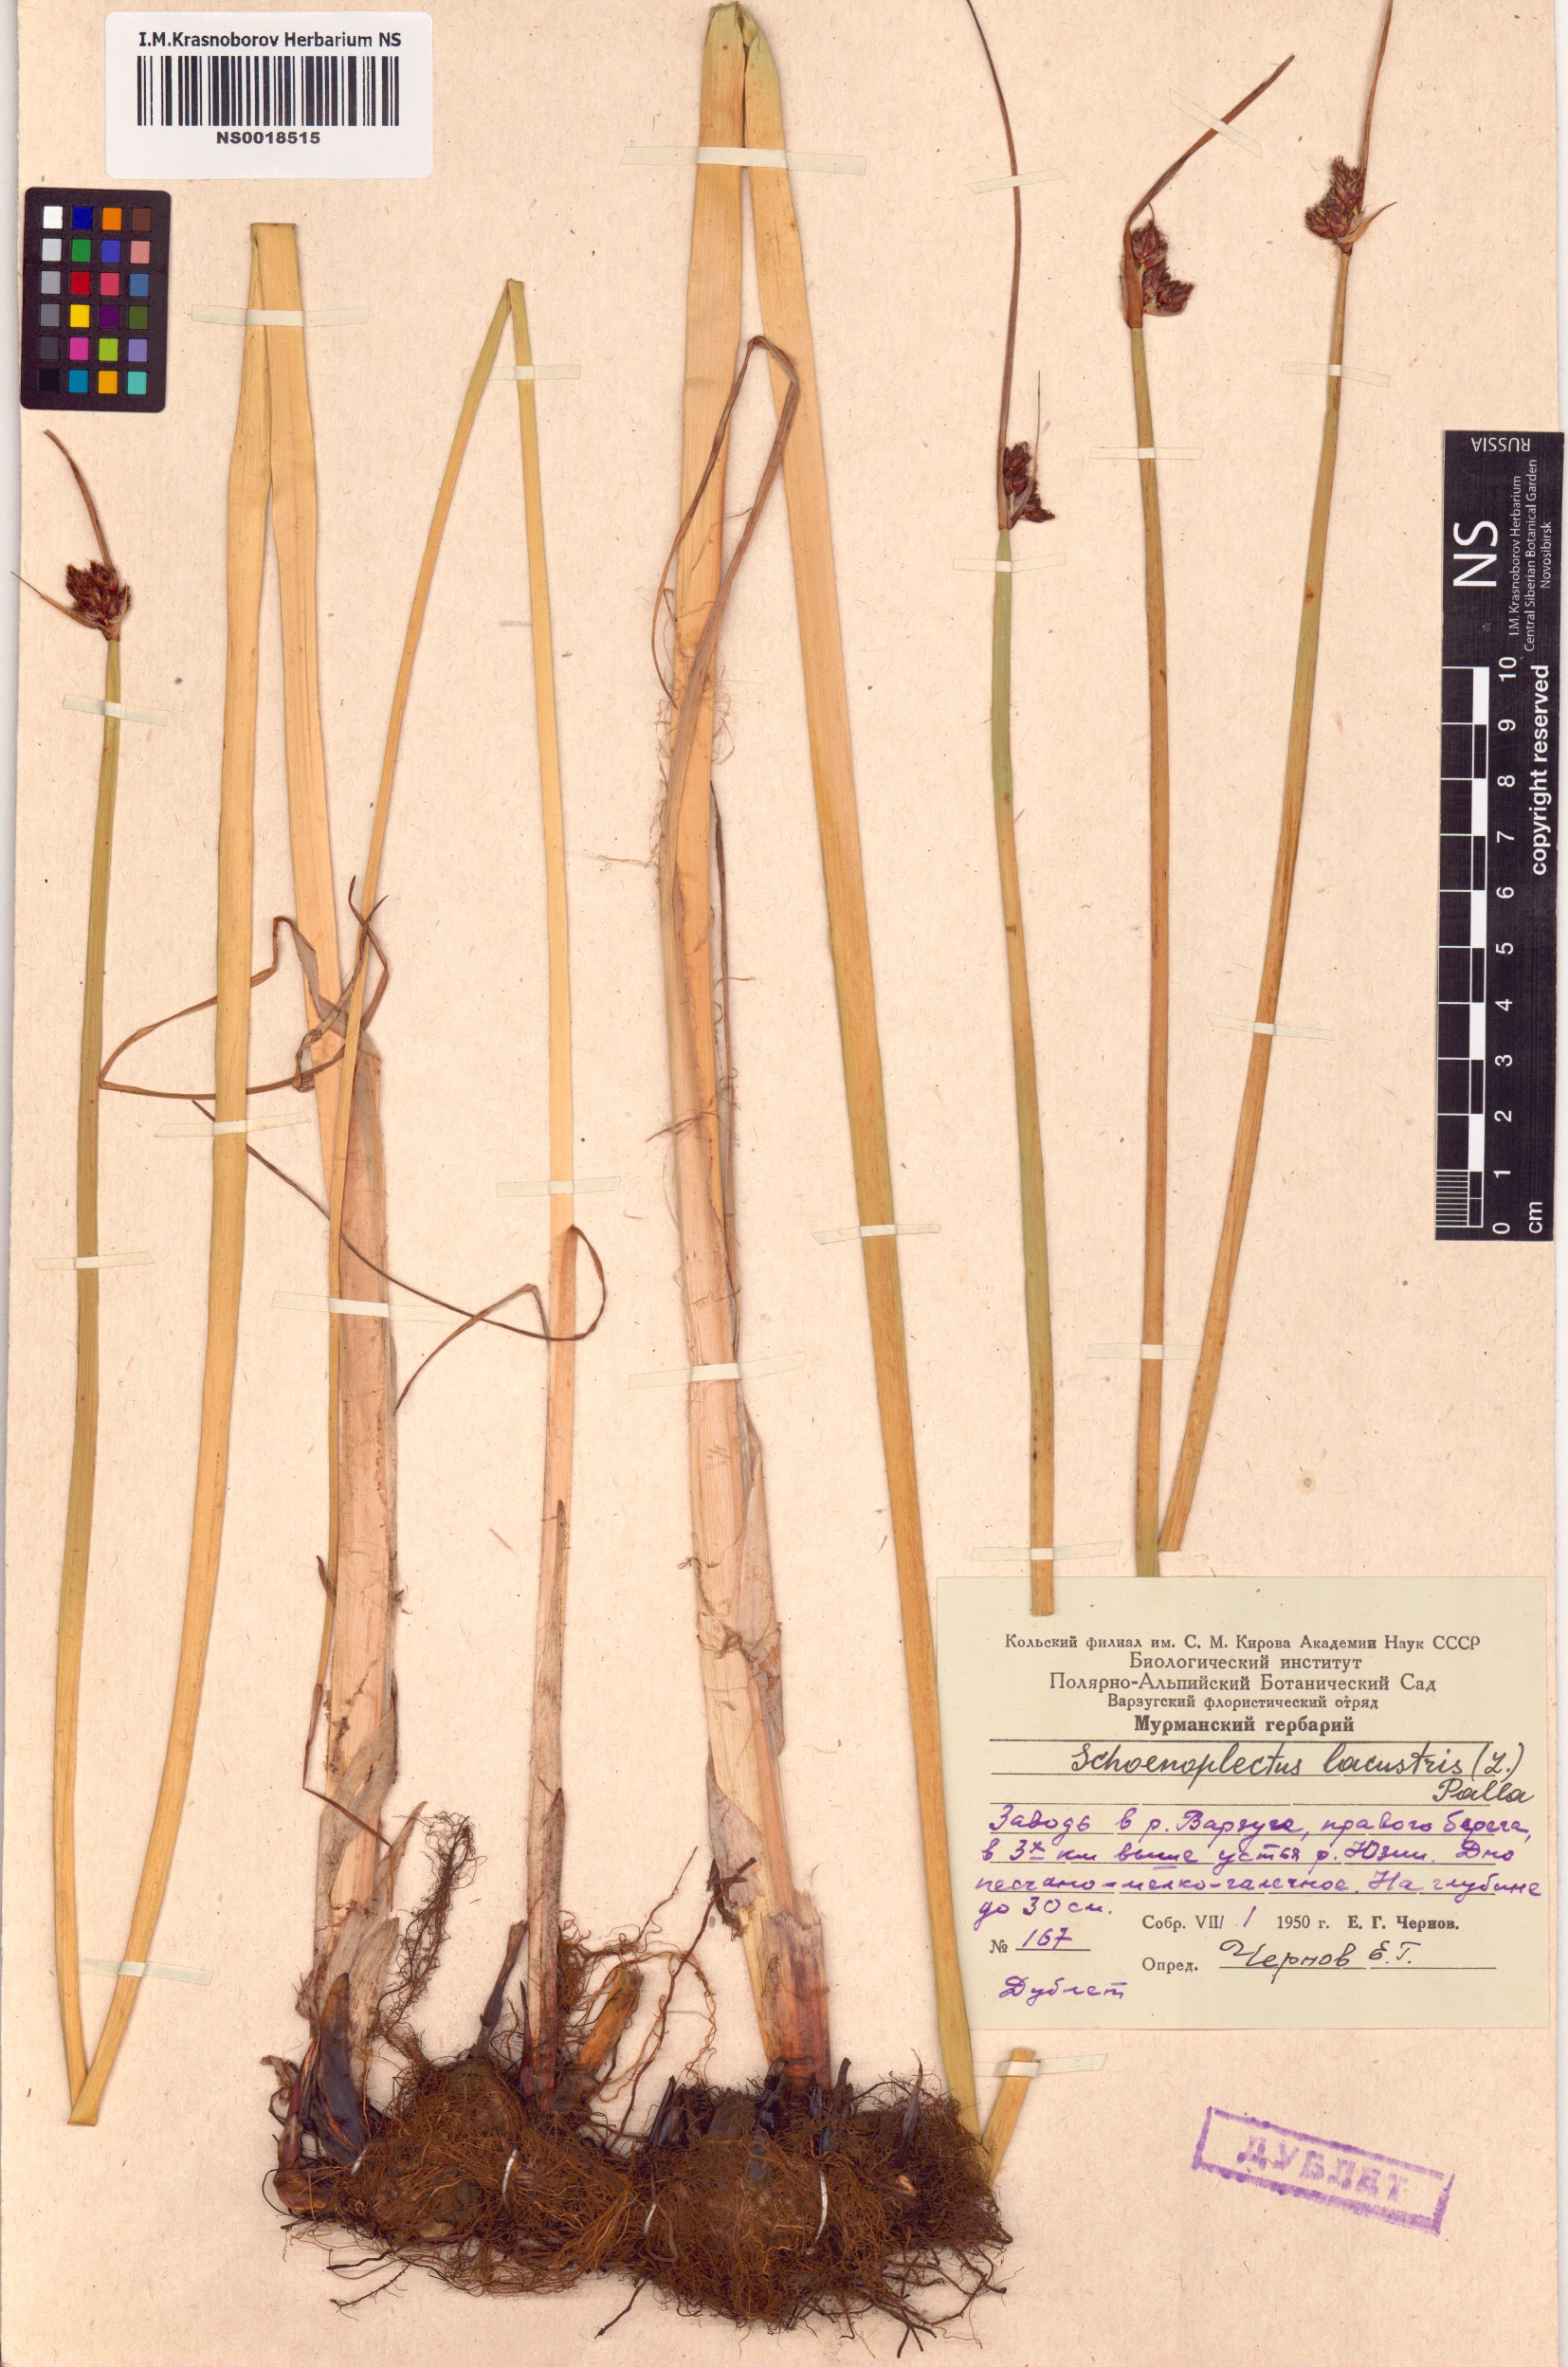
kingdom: Plantae
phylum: Tracheophyta
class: Liliopsida
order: Poales
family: Cyperaceae
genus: Schoenoplectus
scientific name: Schoenoplectus lacustris
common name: Common club-rush
